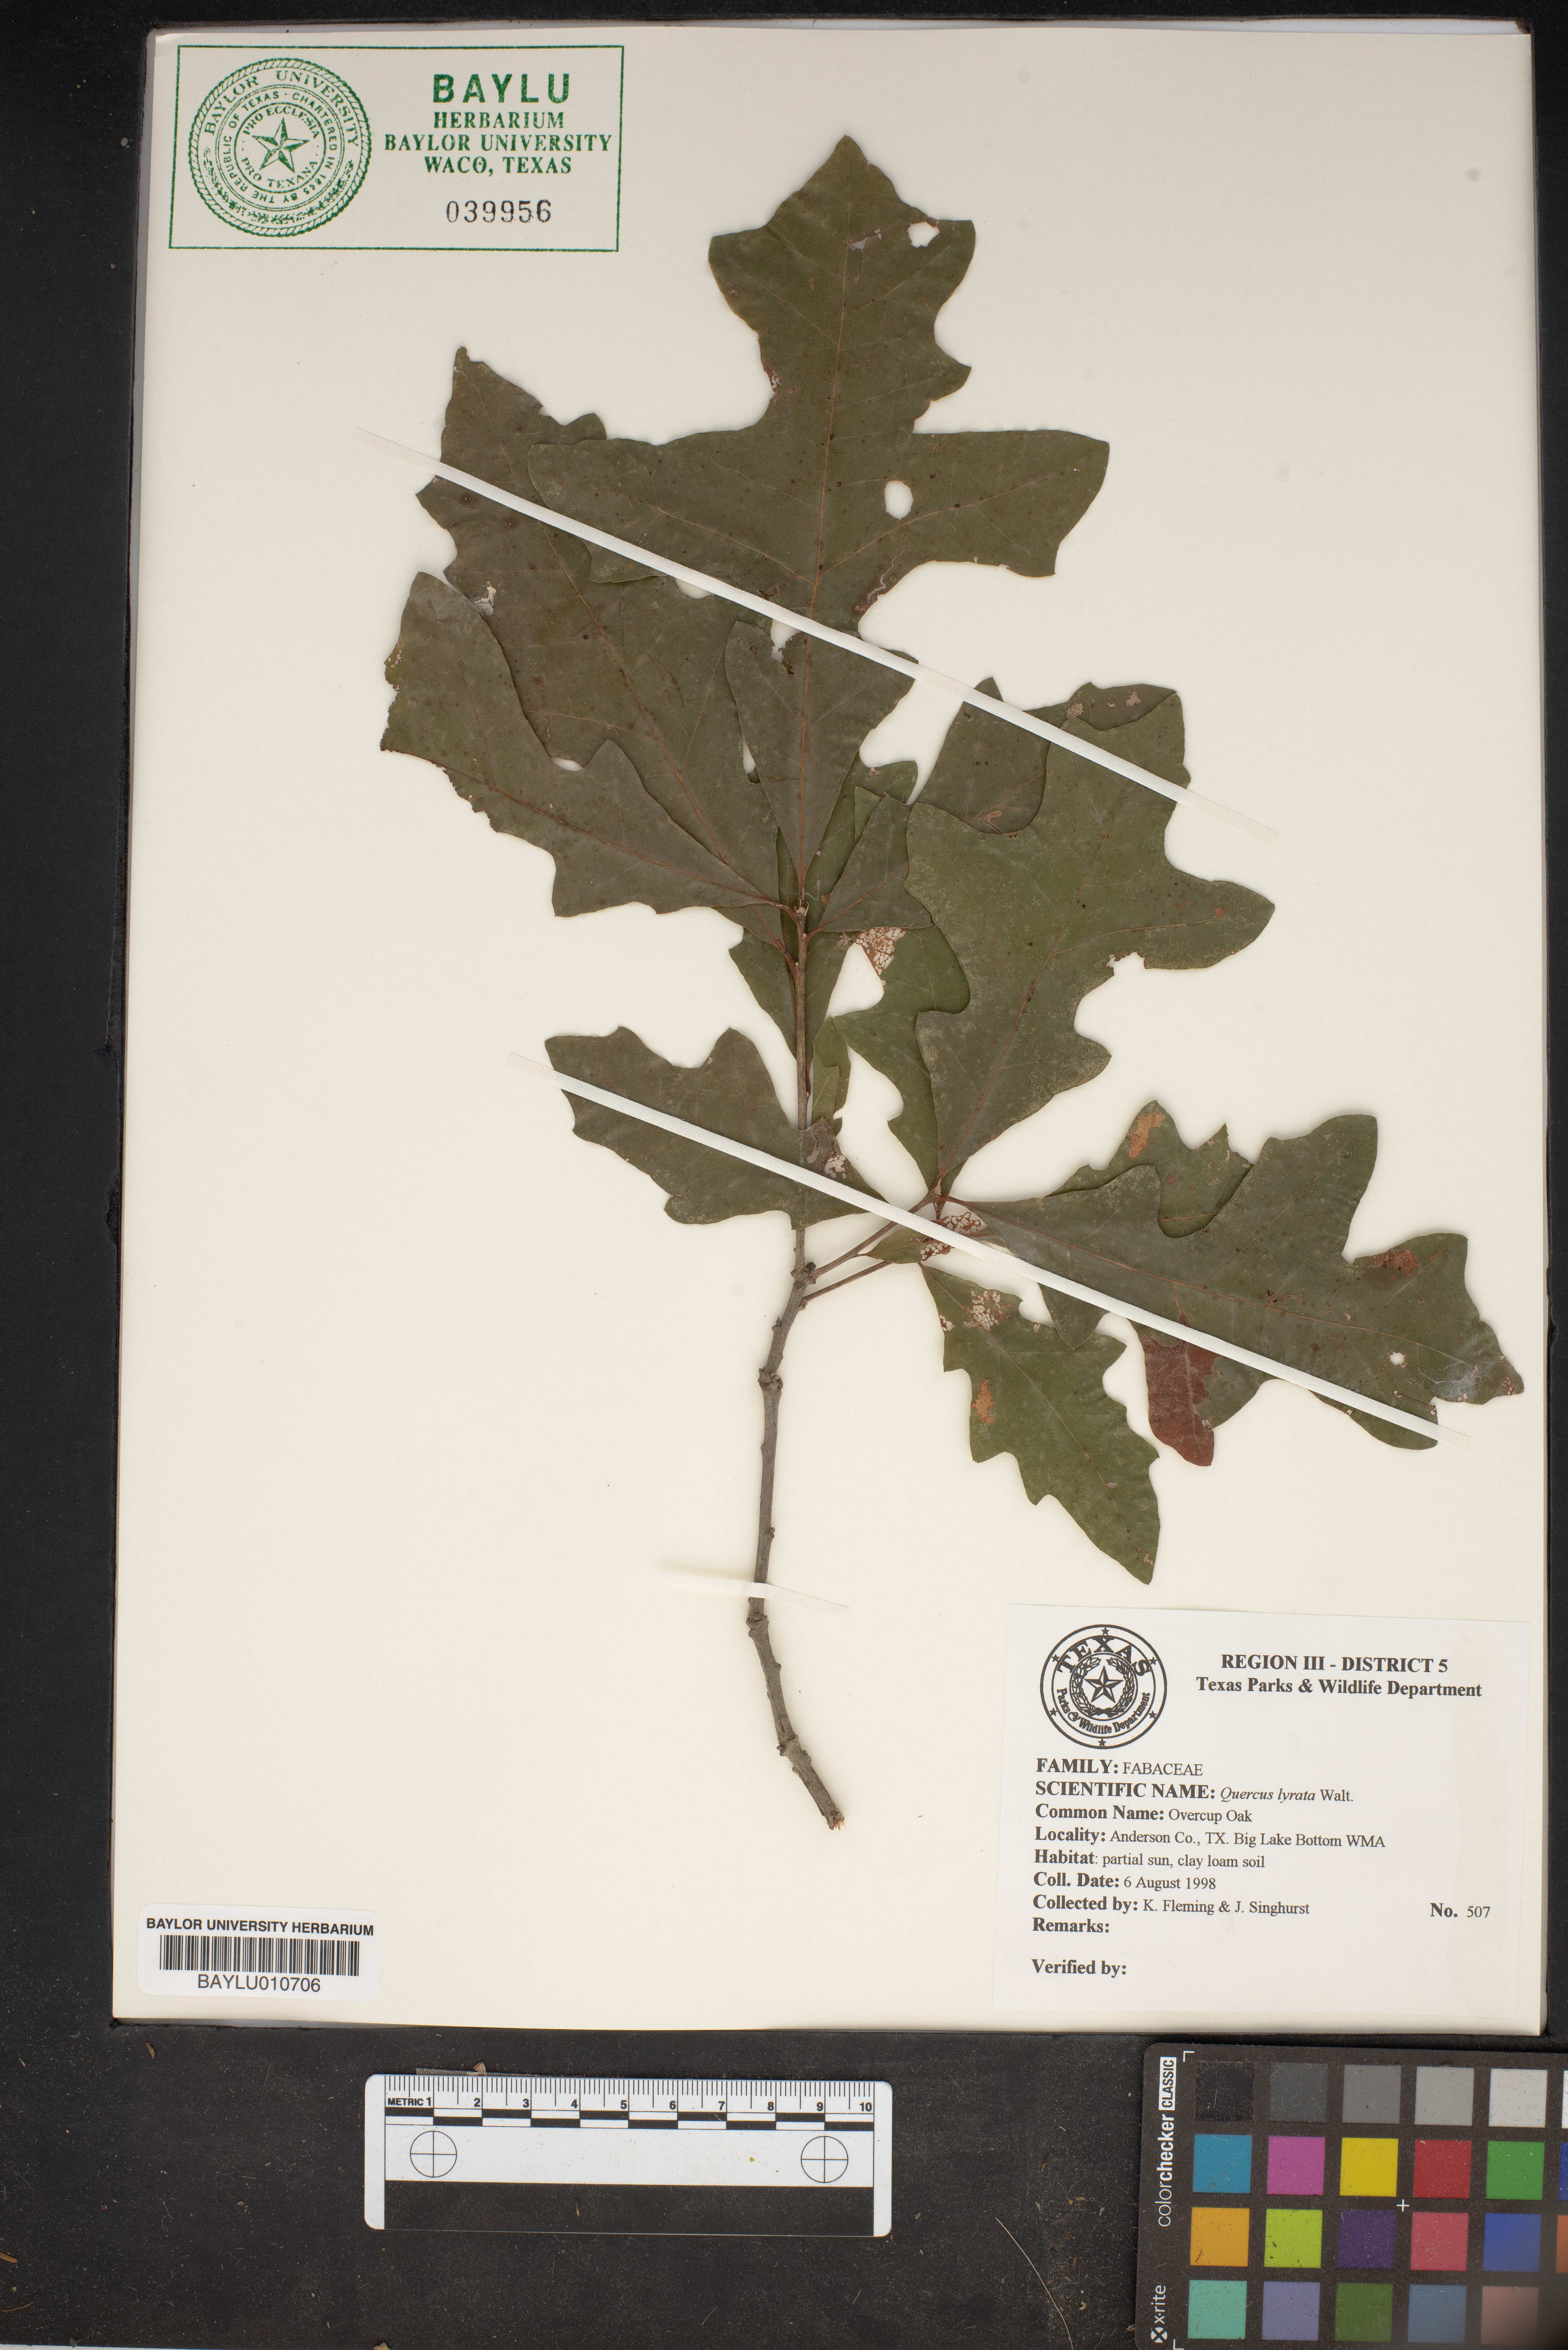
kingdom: Plantae
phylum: Tracheophyta
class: Magnoliopsida
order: Fagales
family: Fagaceae
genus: Quercus
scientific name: Quercus lyrata
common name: Overcup oak
